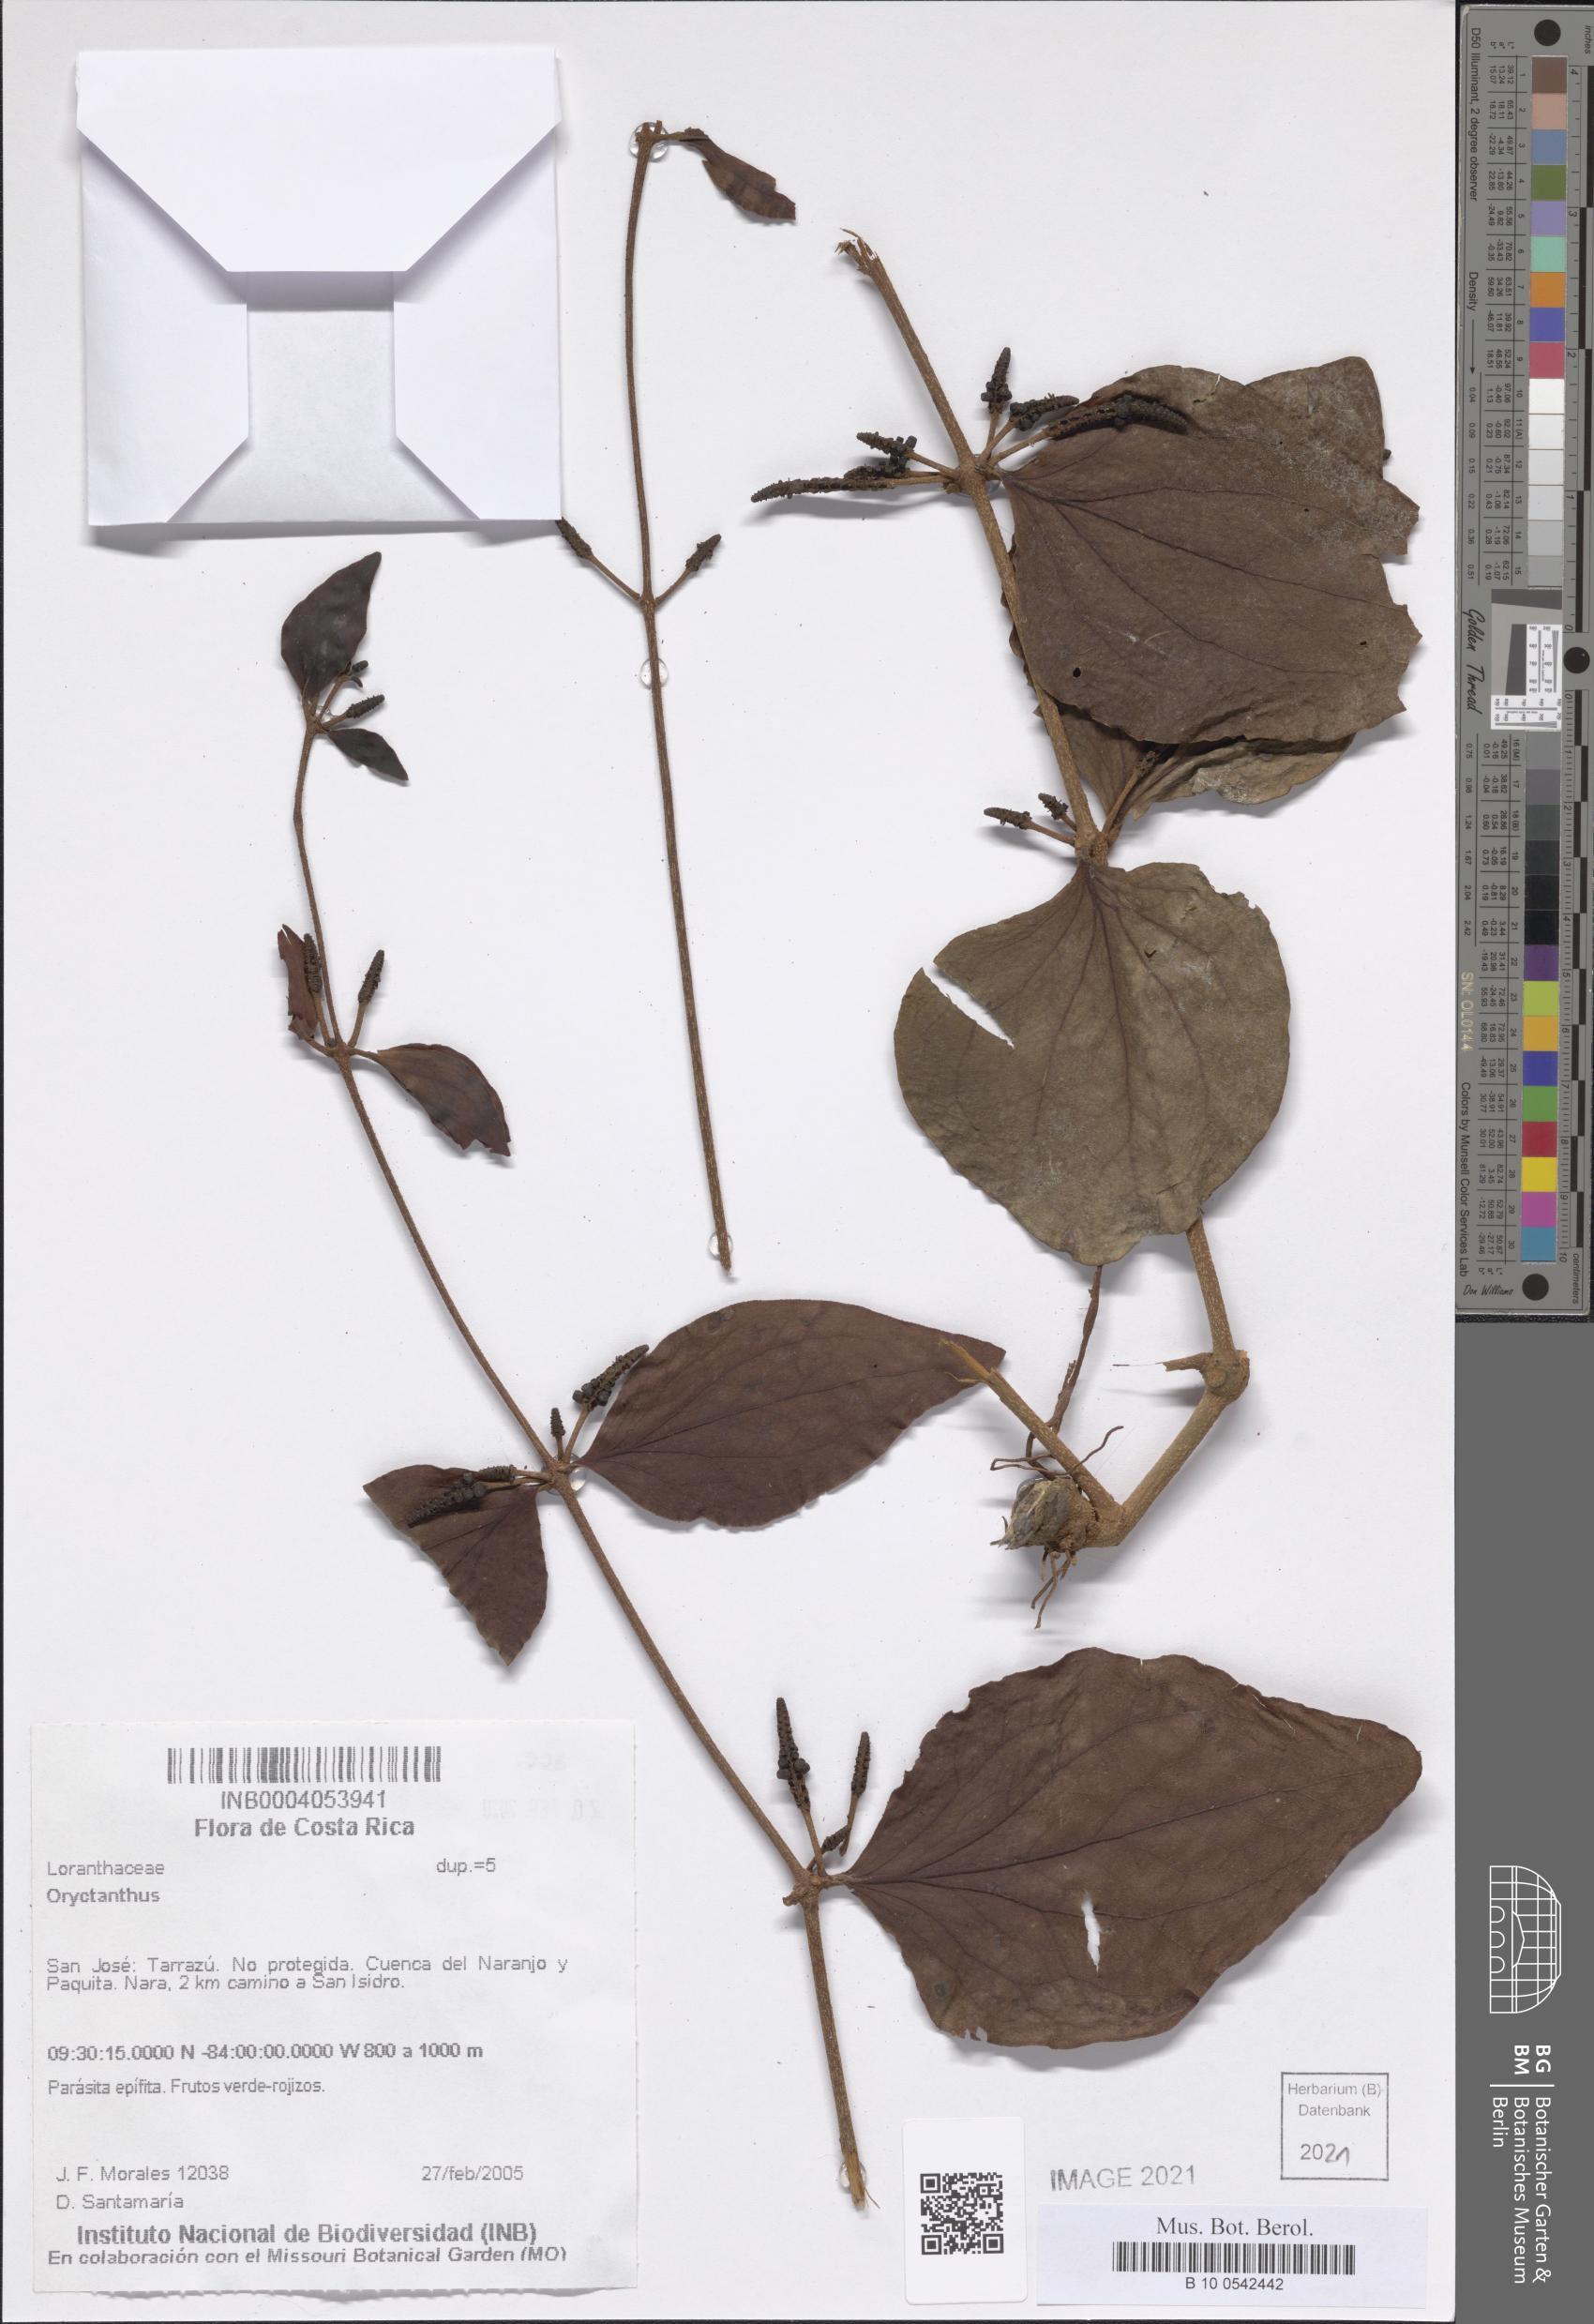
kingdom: Plantae
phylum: Tracheophyta
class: Magnoliopsida
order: Santalales
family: Loranthaceae
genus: Oryctanthus
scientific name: Oryctanthus
